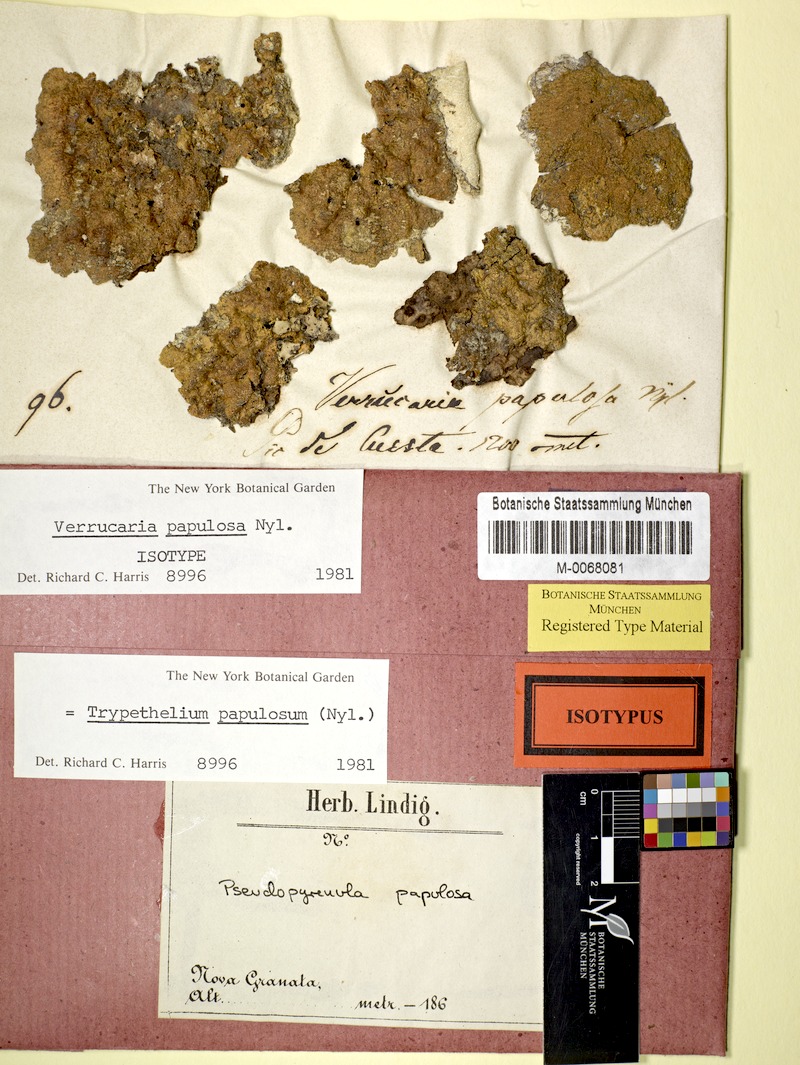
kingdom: Fungi
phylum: Ascomycota
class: Dothideomycetes
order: Trypetheliales
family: Trypetheliaceae
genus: Astrothelium
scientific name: Astrothelium papulosum
